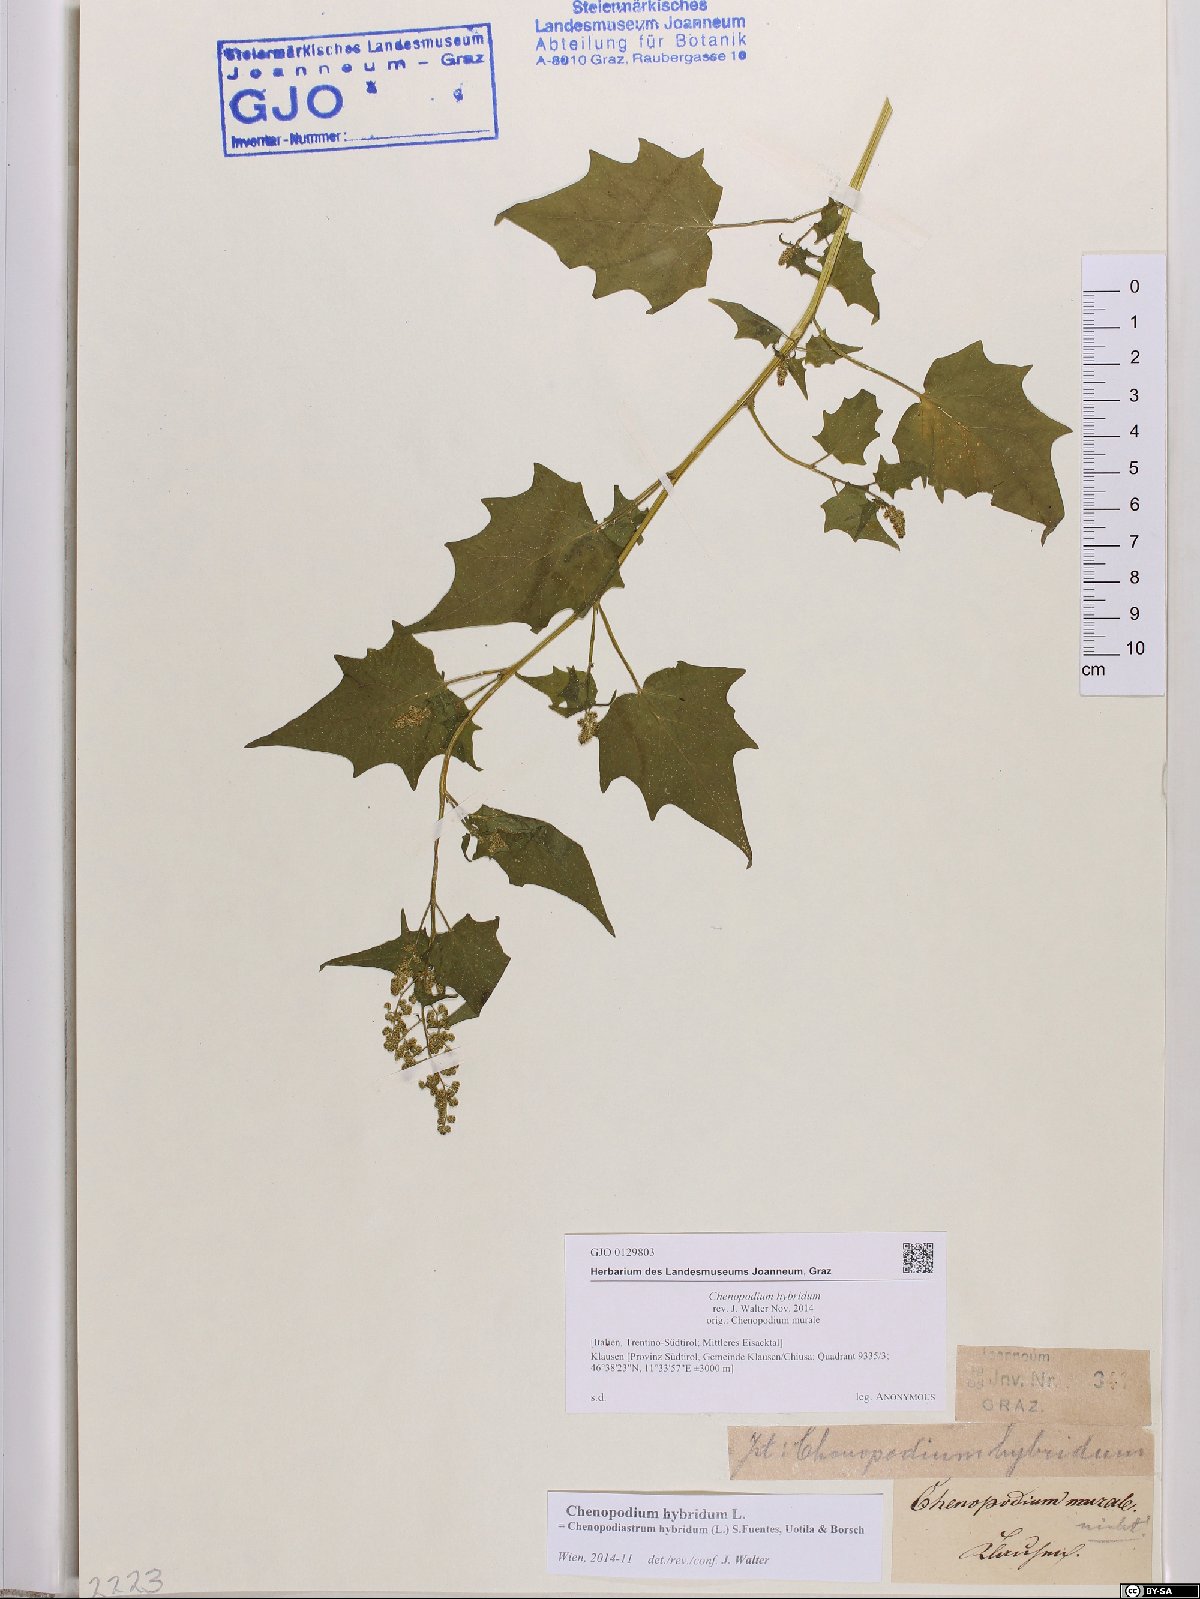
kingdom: Plantae
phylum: Tracheophyta
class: Magnoliopsida
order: Caryophyllales
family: Amaranthaceae
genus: Chenopodiastrum
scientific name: Chenopodiastrum hybridum
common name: Mapleleaf goosefoot
